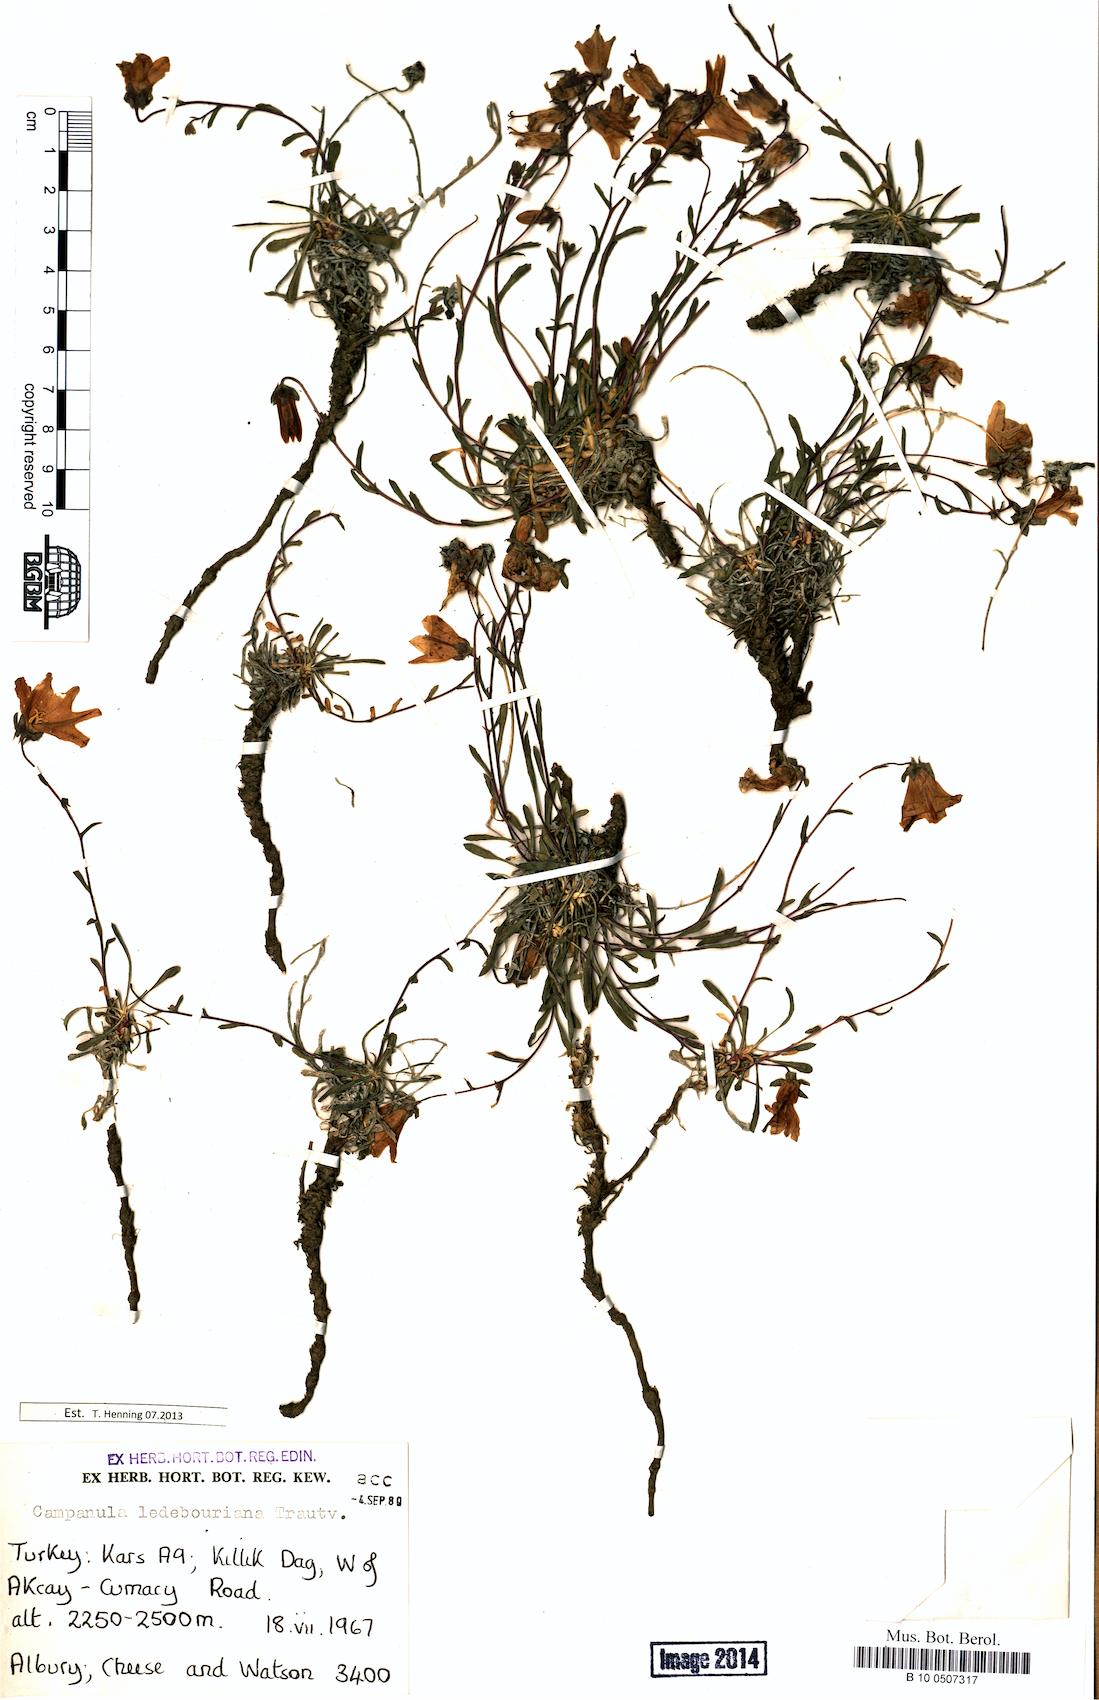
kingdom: Plantae
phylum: Tracheophyta
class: Magnoliopsida
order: Asterales
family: Campanulaceae
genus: Campanula
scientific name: Campanula ledebouriana
